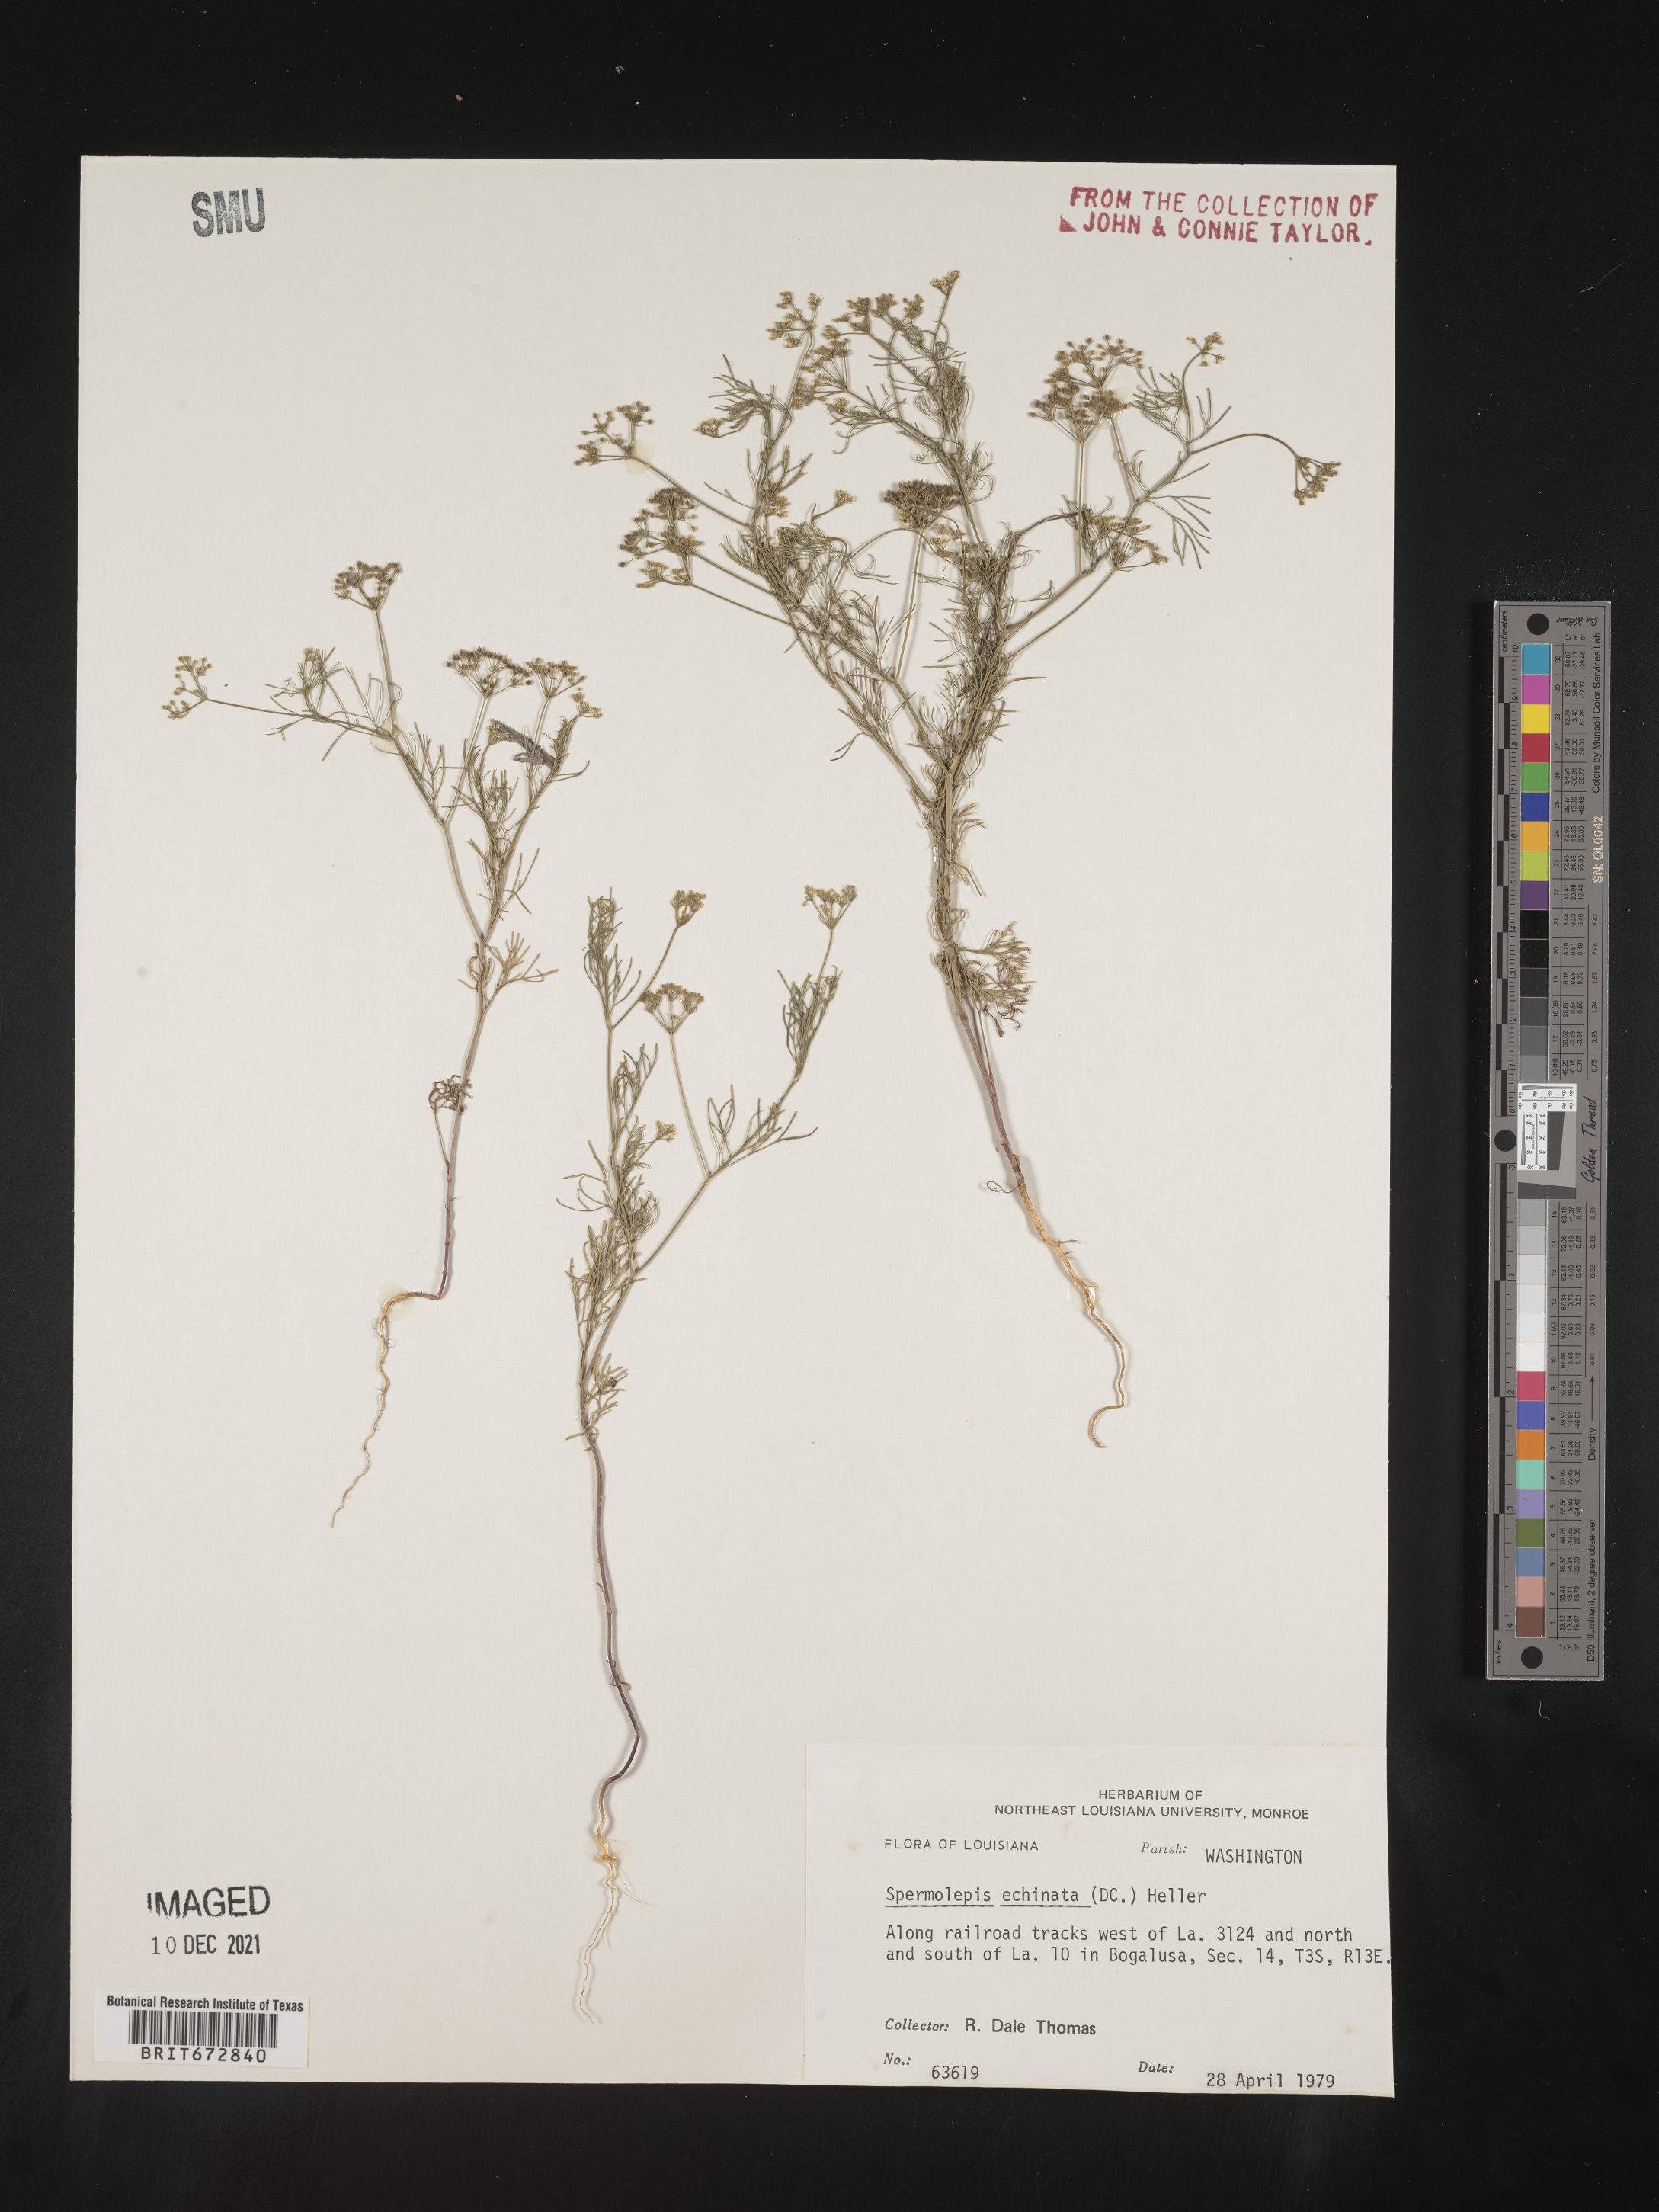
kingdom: Plantae
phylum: Tracheophyta
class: Magnoliopsida
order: Apiales
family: Apiaceae
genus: Spermolepis
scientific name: Spermolepis echinata
